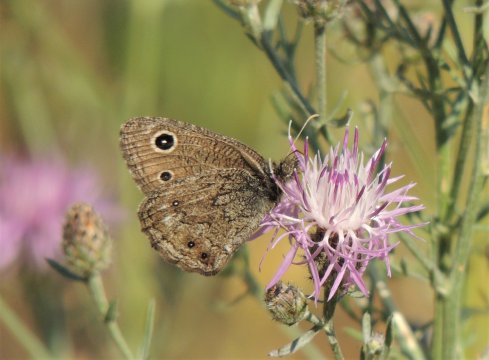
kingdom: Animalia
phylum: Arthropoda
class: Insecta
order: Lepidoptera
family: Nymphalidae
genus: Cercyonis
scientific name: Cercyonis oetus
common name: Small Wood-Nymph
